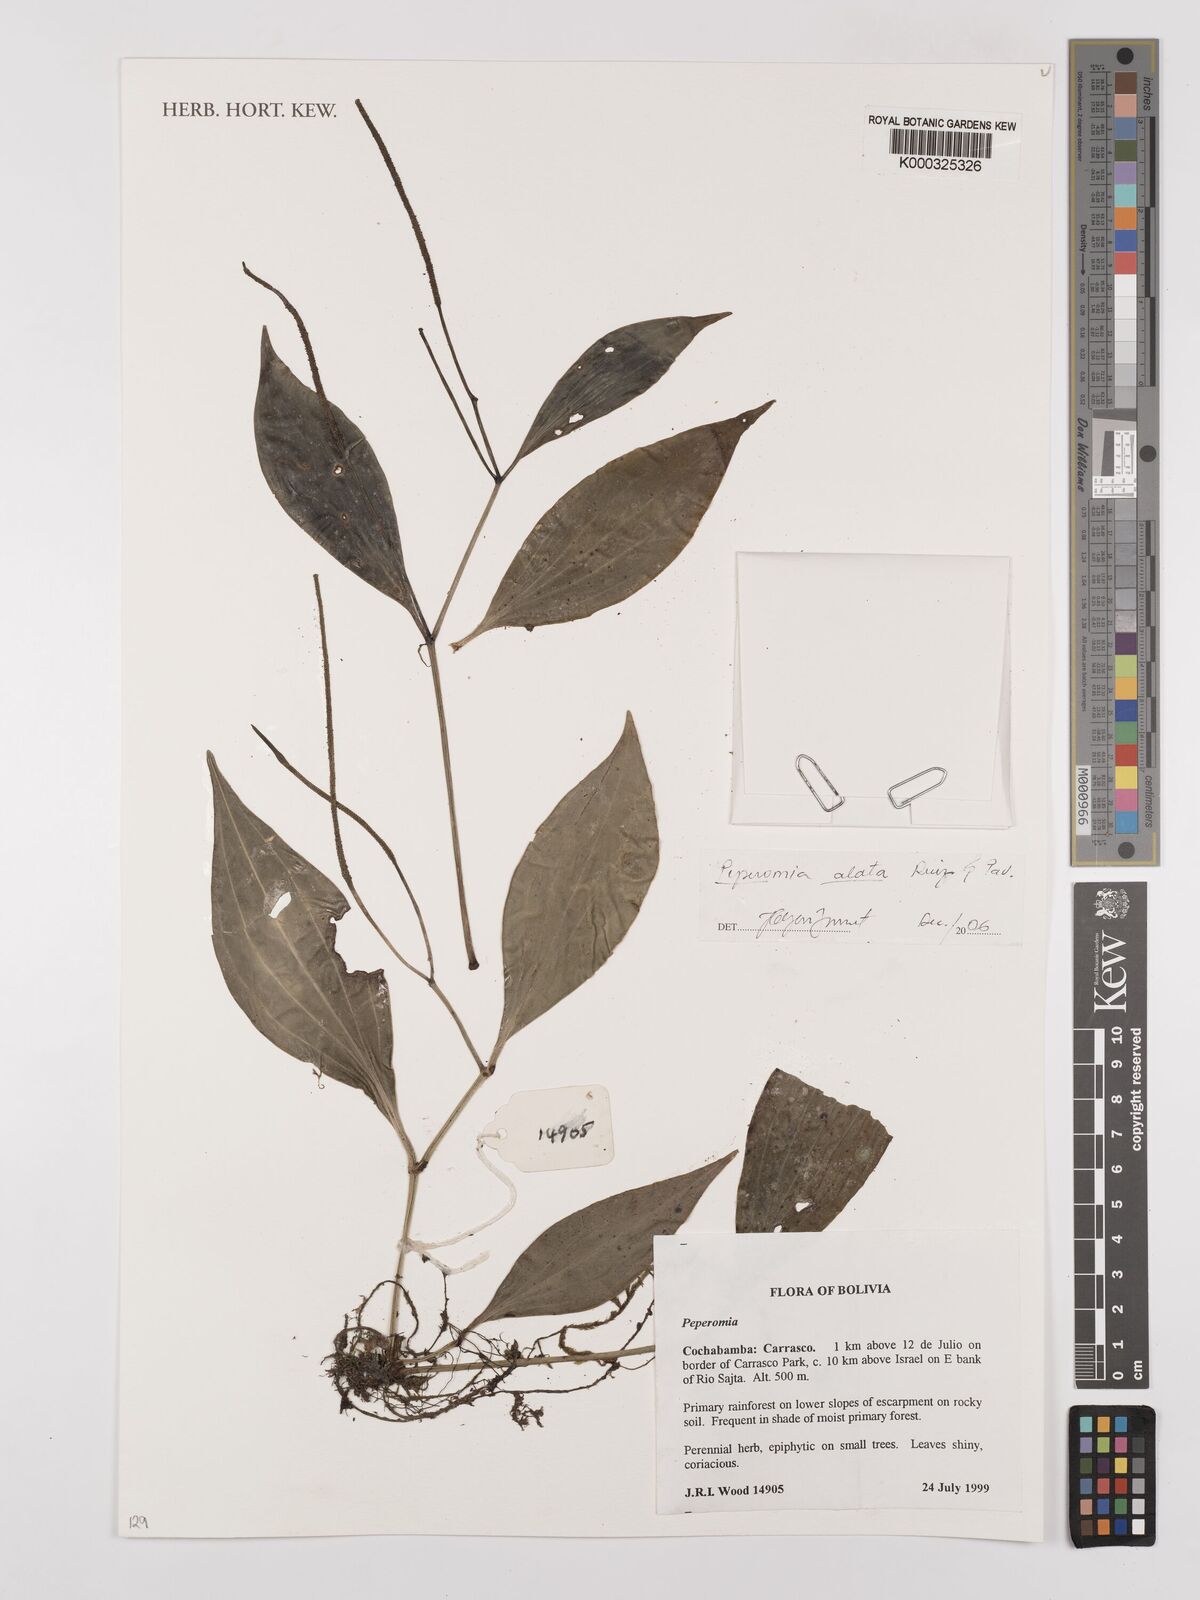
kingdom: Plantae
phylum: Tracheophyta
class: Magnoliopsida
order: Piperales
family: Piperaceae
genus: Peperomia
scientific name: Peperomia alata
